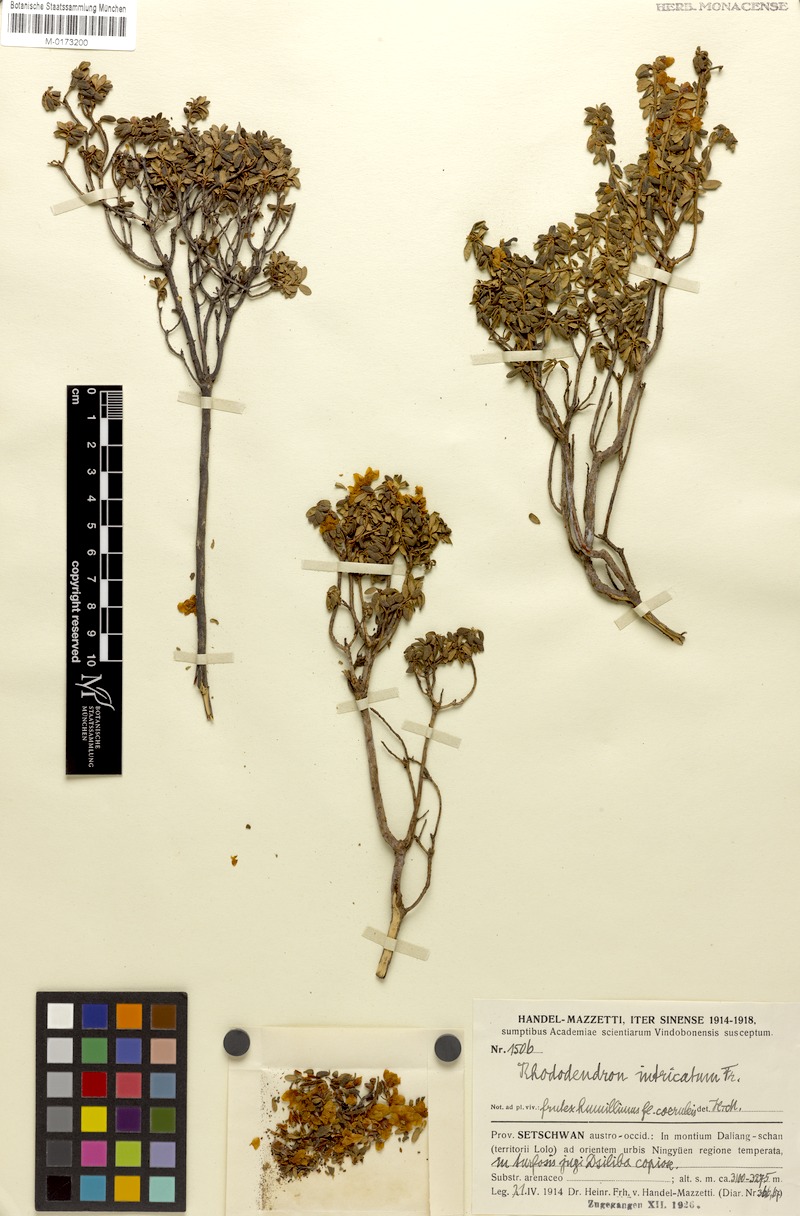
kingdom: Plantae
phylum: Tracheophyta
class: Magnoliopsida
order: Ericales
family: Ericaceae
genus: Rhododendron
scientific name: Rhododendron intricatum
